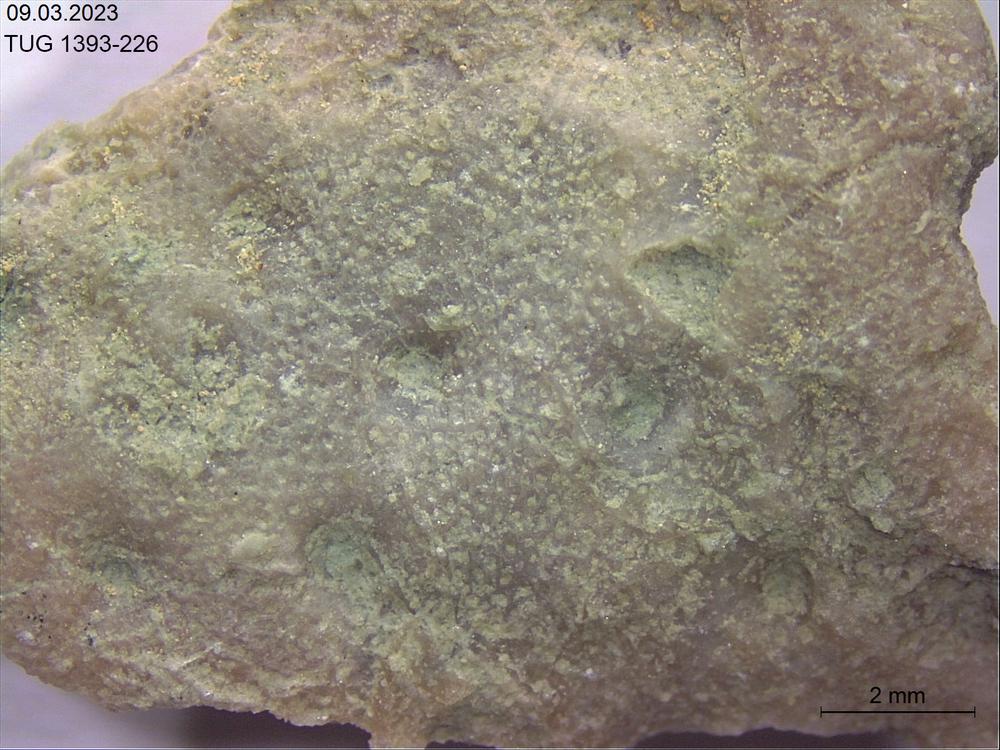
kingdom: Animalia
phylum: Bryozoa
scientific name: Bryozoa
